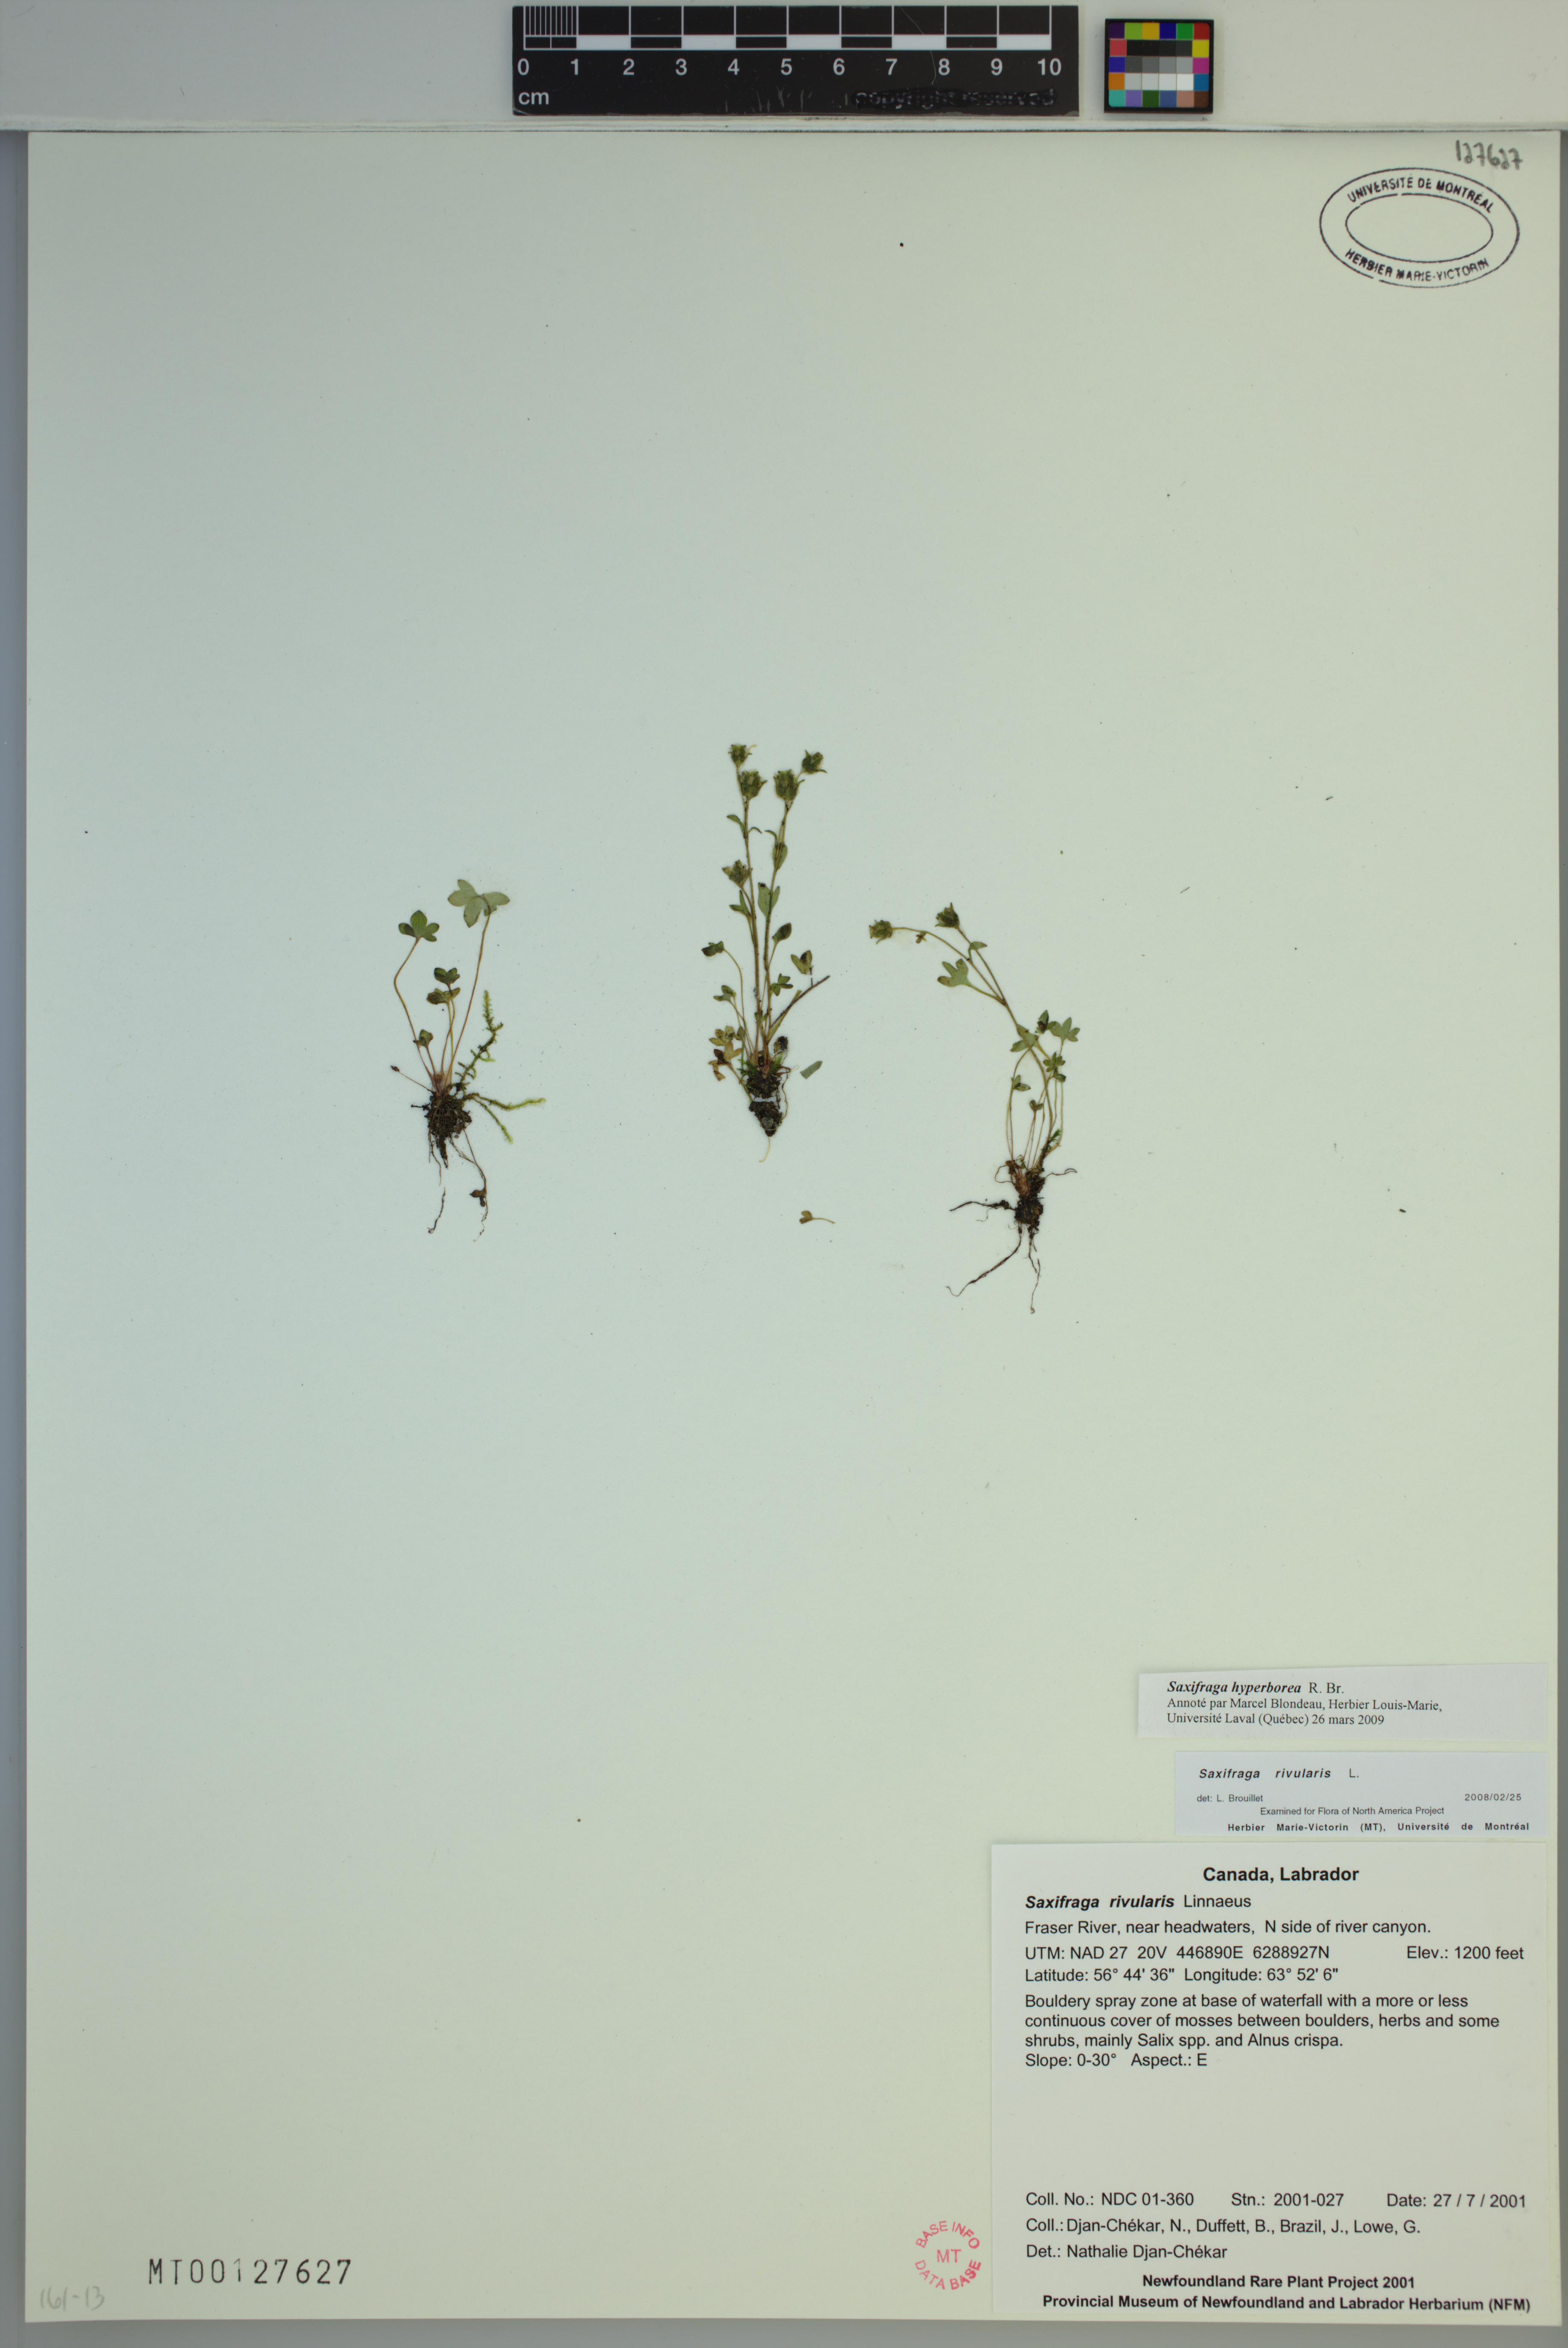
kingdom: Plantae
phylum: Tracheophyta
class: Magnoliopsida
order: Saxifragales
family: Saxifragaceae
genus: Saxifraga
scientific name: Saxifraga hyperborea
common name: Arctic saxifrage
